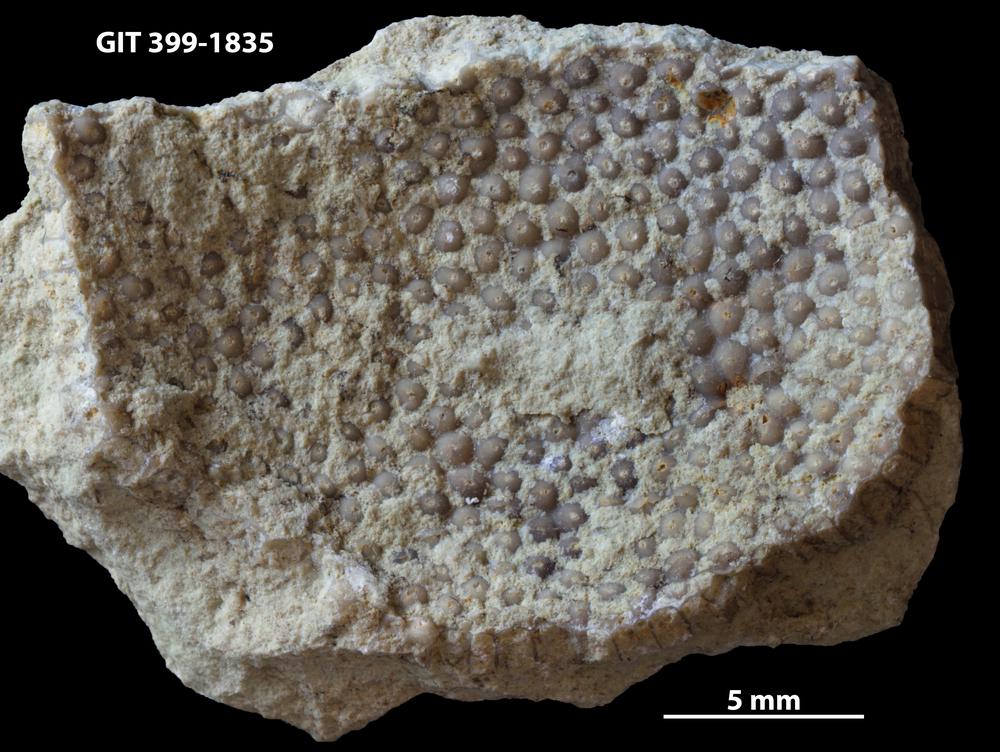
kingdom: Plantae
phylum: Chlorophyta
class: Ulvophyceae
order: Cyclocrinales
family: Cyclocrinaceae
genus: Mastopora
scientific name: Mastopora concava
